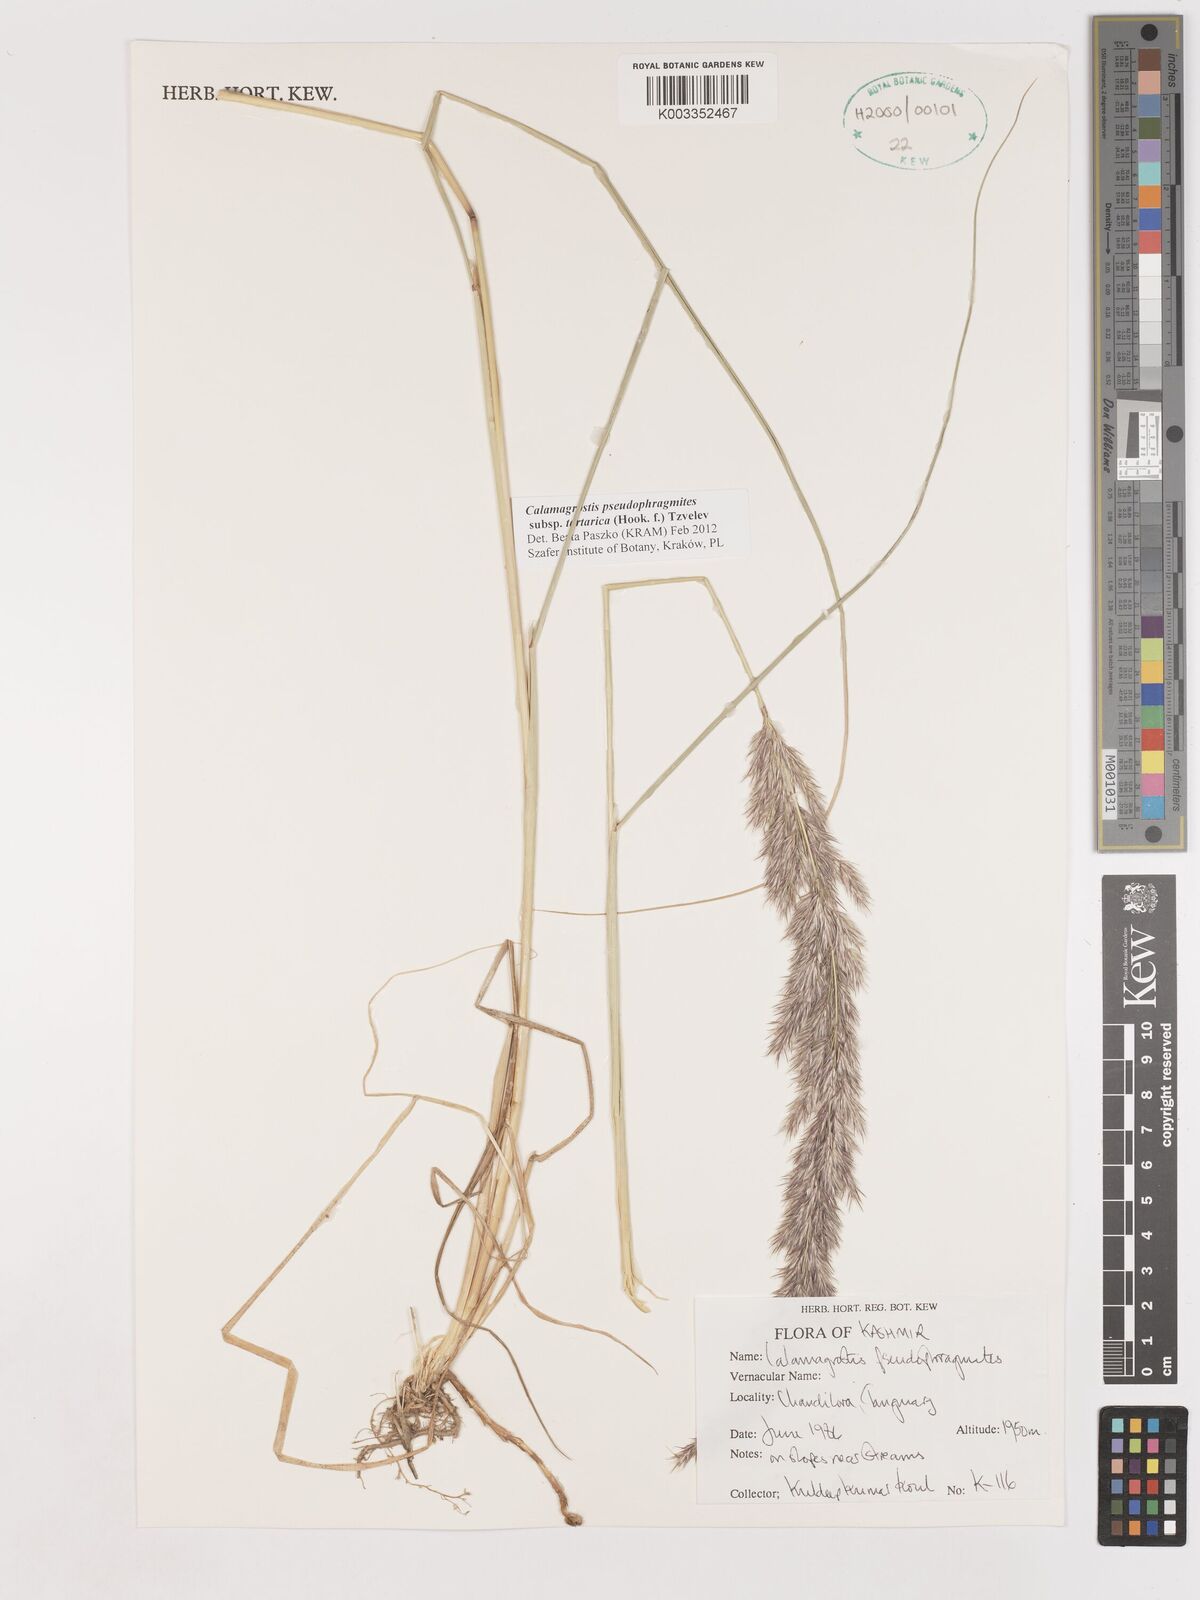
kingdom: Plantae
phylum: Tracheophyta
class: Liliopsida
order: Poales
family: Poaceae
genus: Calamagrostis
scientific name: Calamagrostis pseudophragmites
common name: Coastal small-reed
